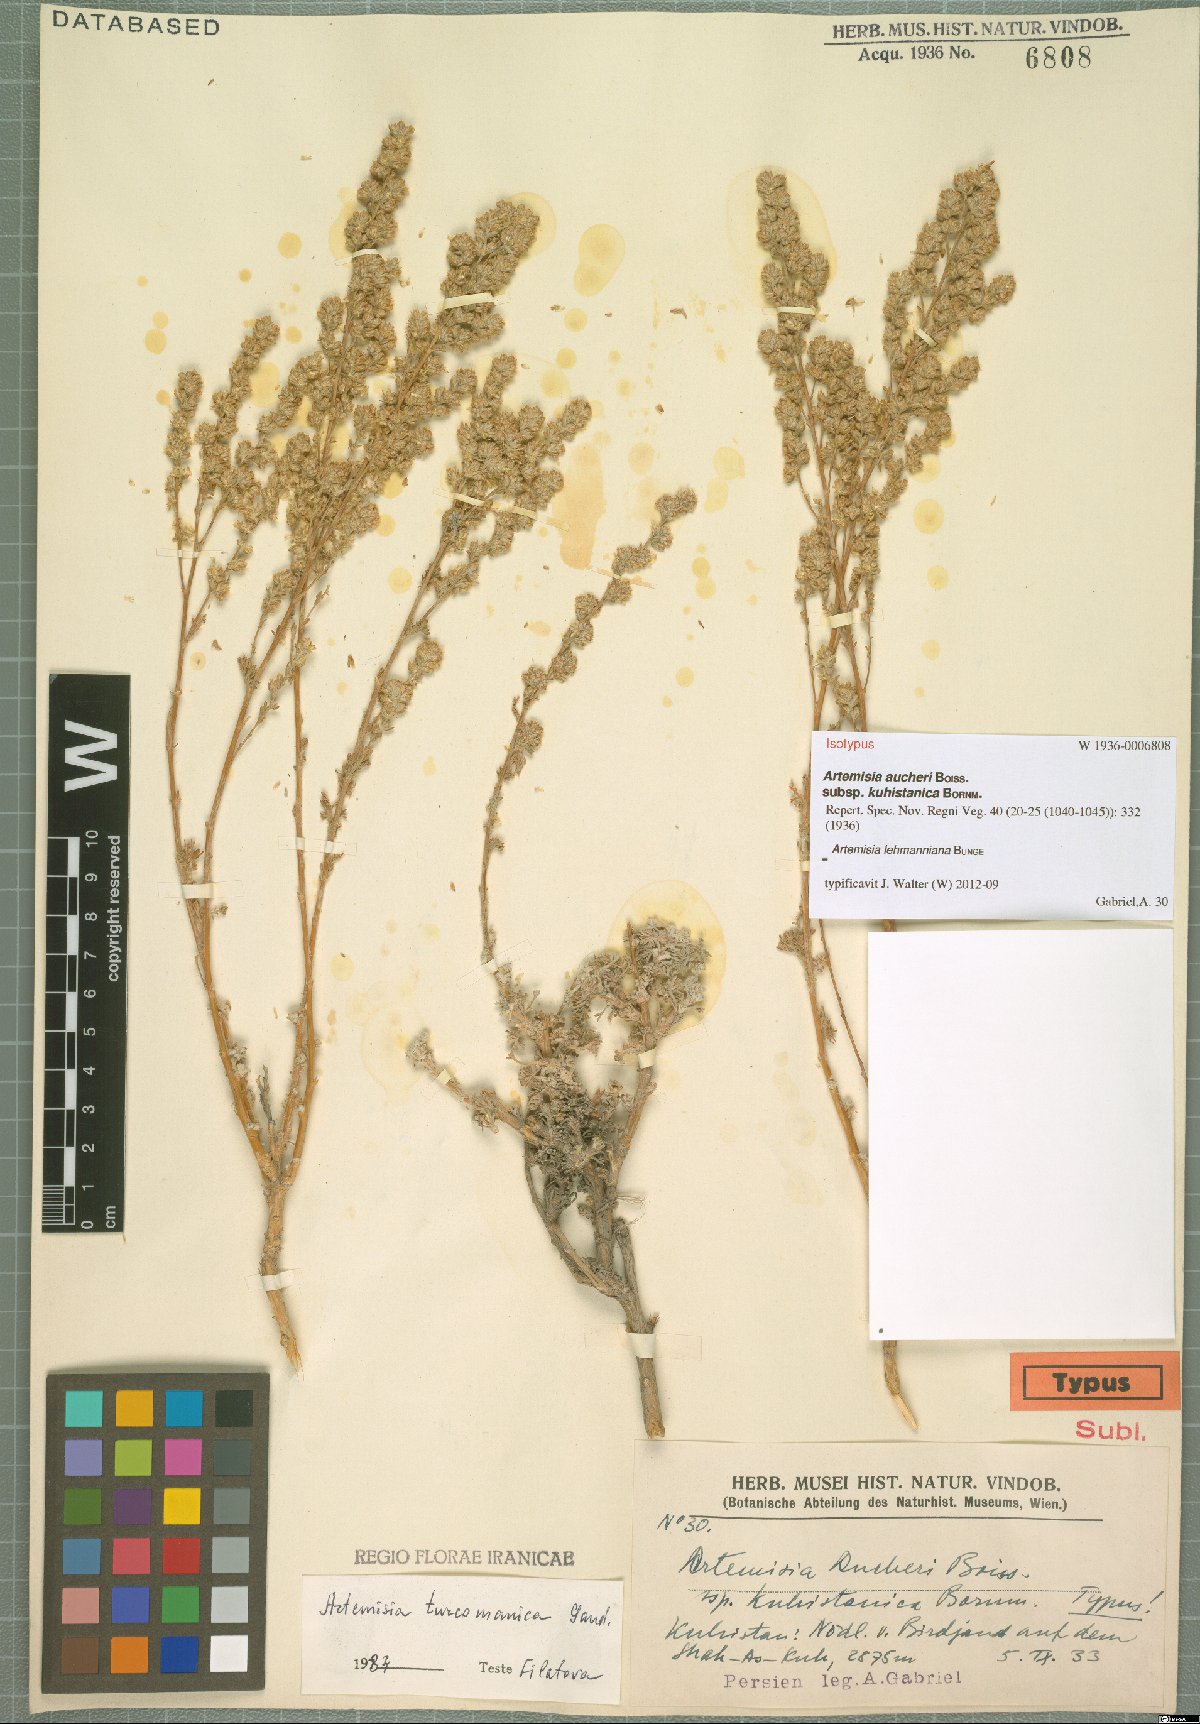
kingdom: Plantae
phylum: Tracheophyta
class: Magnoliopsida
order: Asterales
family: Asteraceae
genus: Artemisia
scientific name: Artemisia lehmanniana
